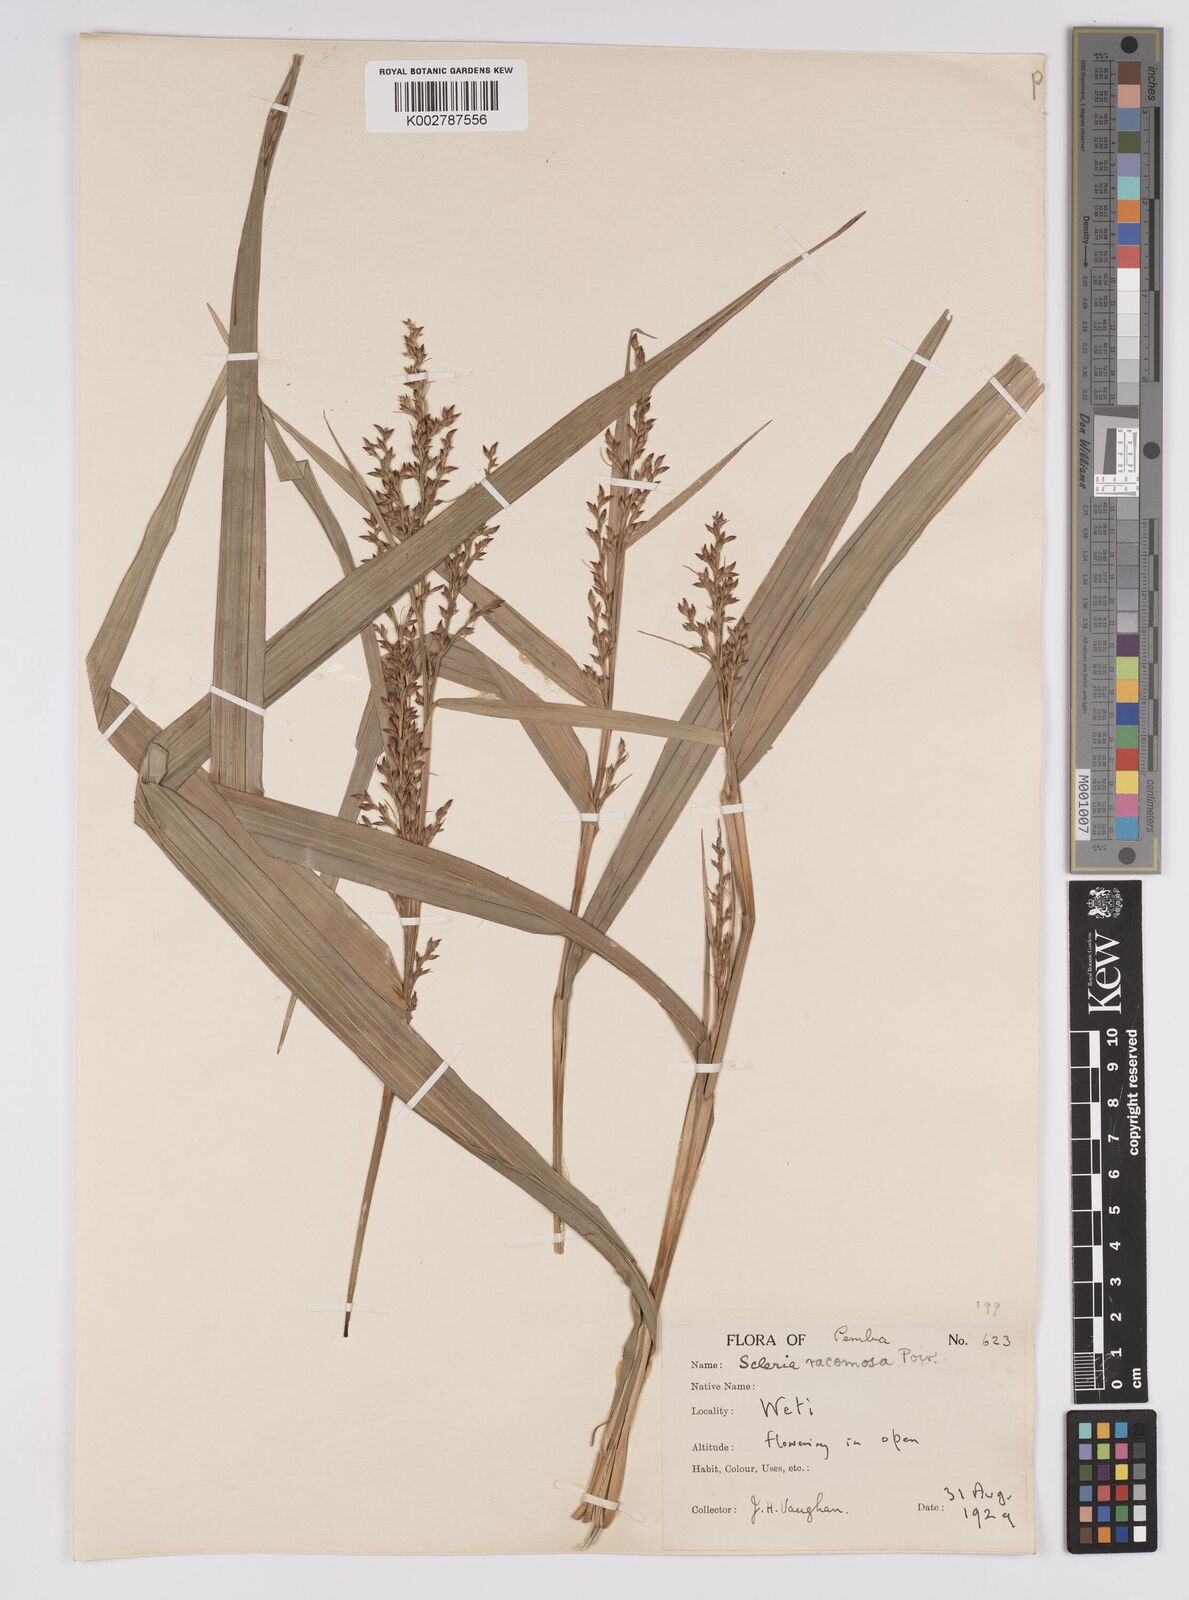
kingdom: Plantae
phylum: Tracheophyta
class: Liliopsida
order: Poales
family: Cyperaceae
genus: Scleria
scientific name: Scleria racemosa
